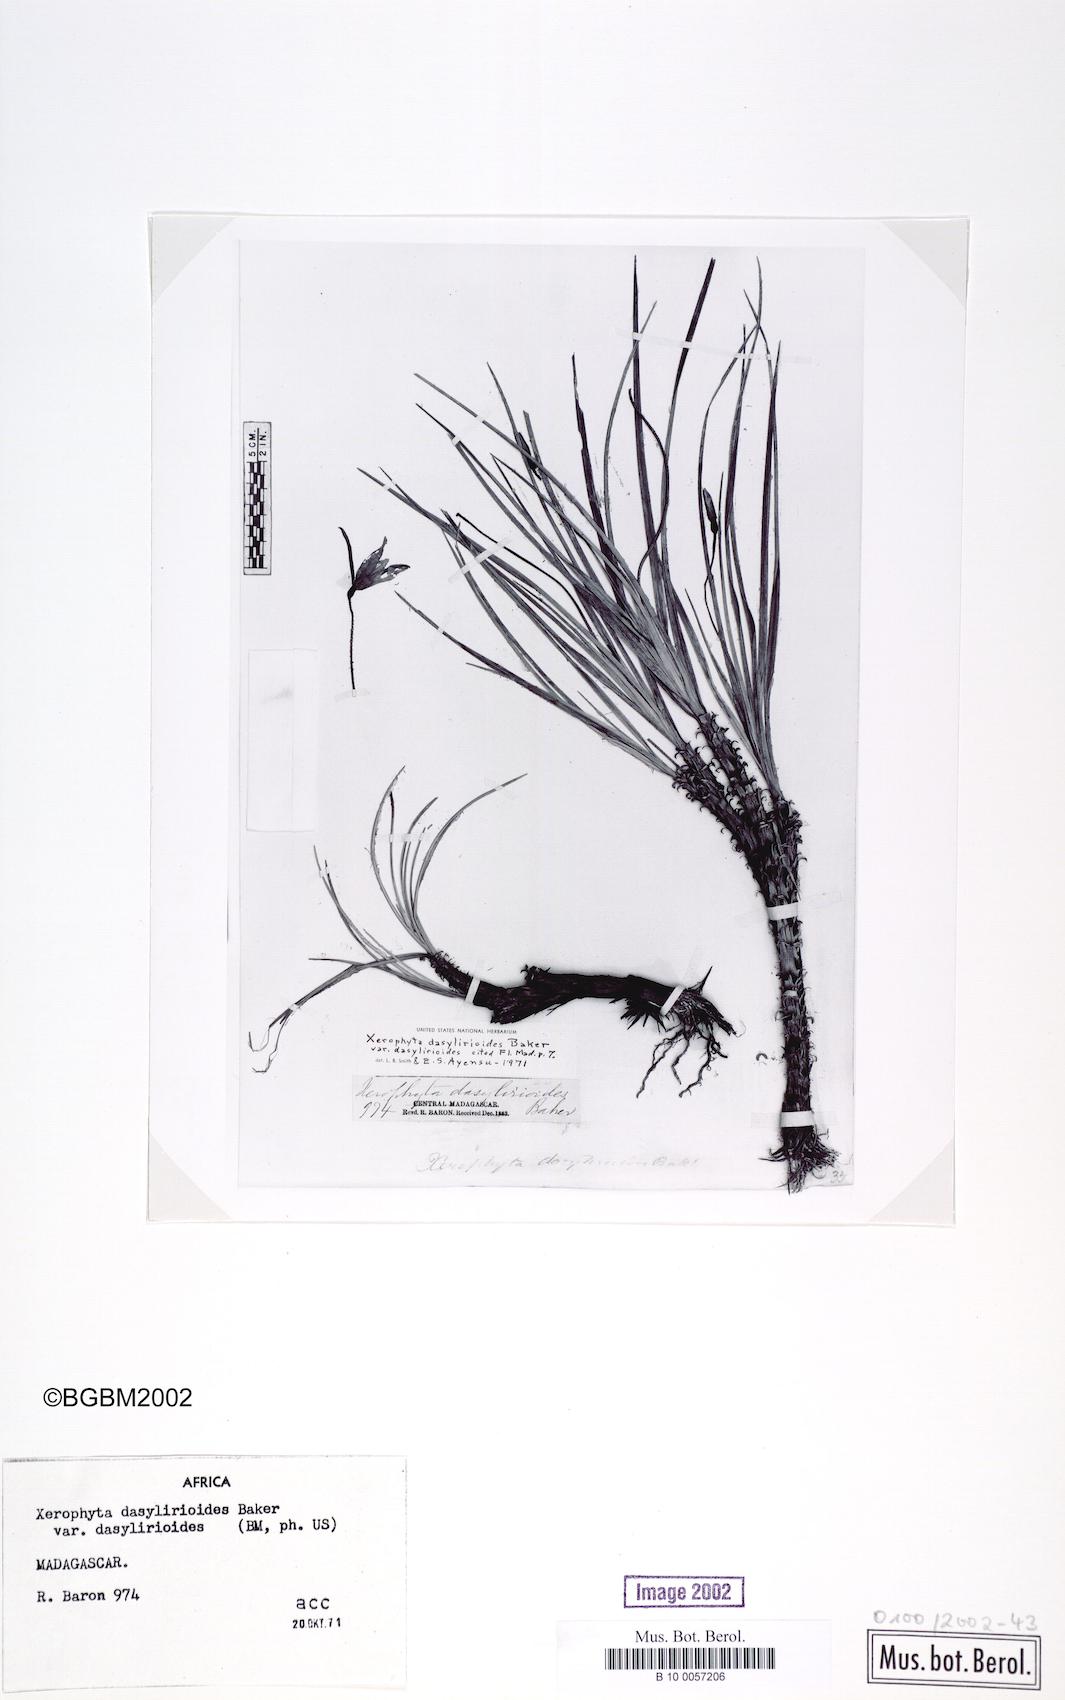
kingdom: Plantae
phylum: Tracheophyta
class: Liliopsida
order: Pandanales
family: Velloziaceae
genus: Xerophyta
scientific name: Xerophyta dasylirioides
